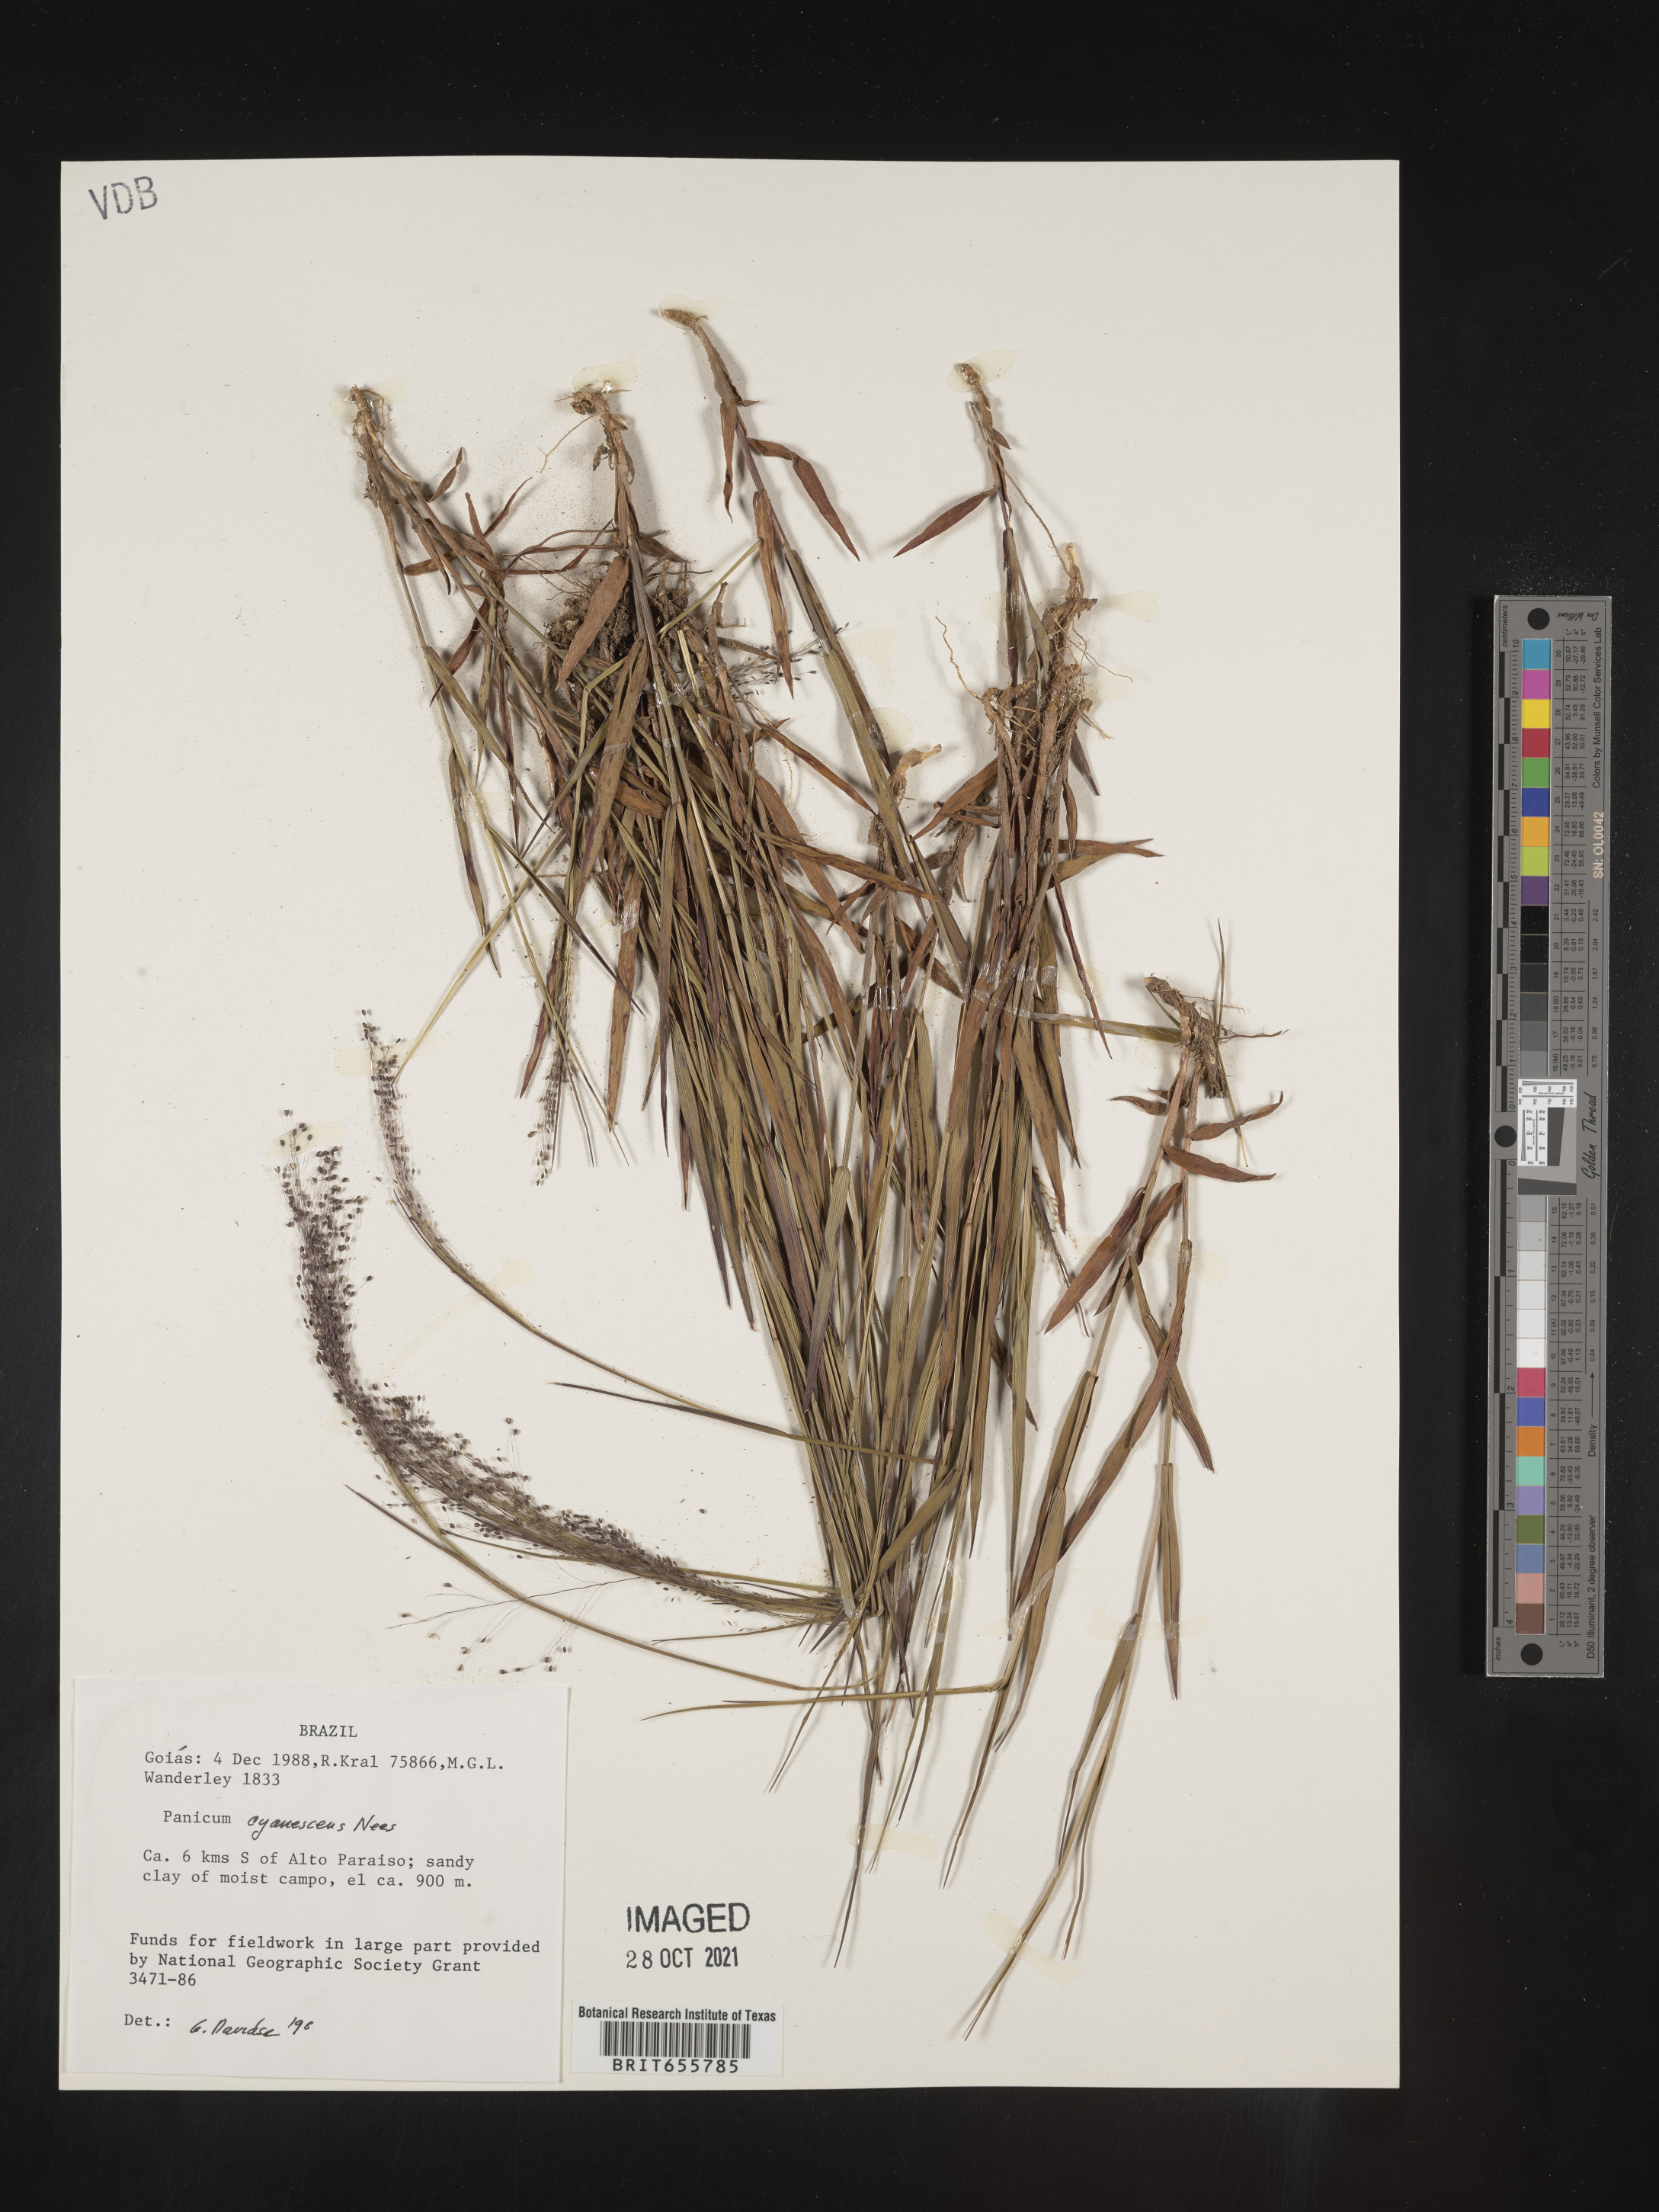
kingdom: Plantae
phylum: Tracheophyta
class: Liliopsida
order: Poales
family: Poaceae
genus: Panicum
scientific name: Panicum
